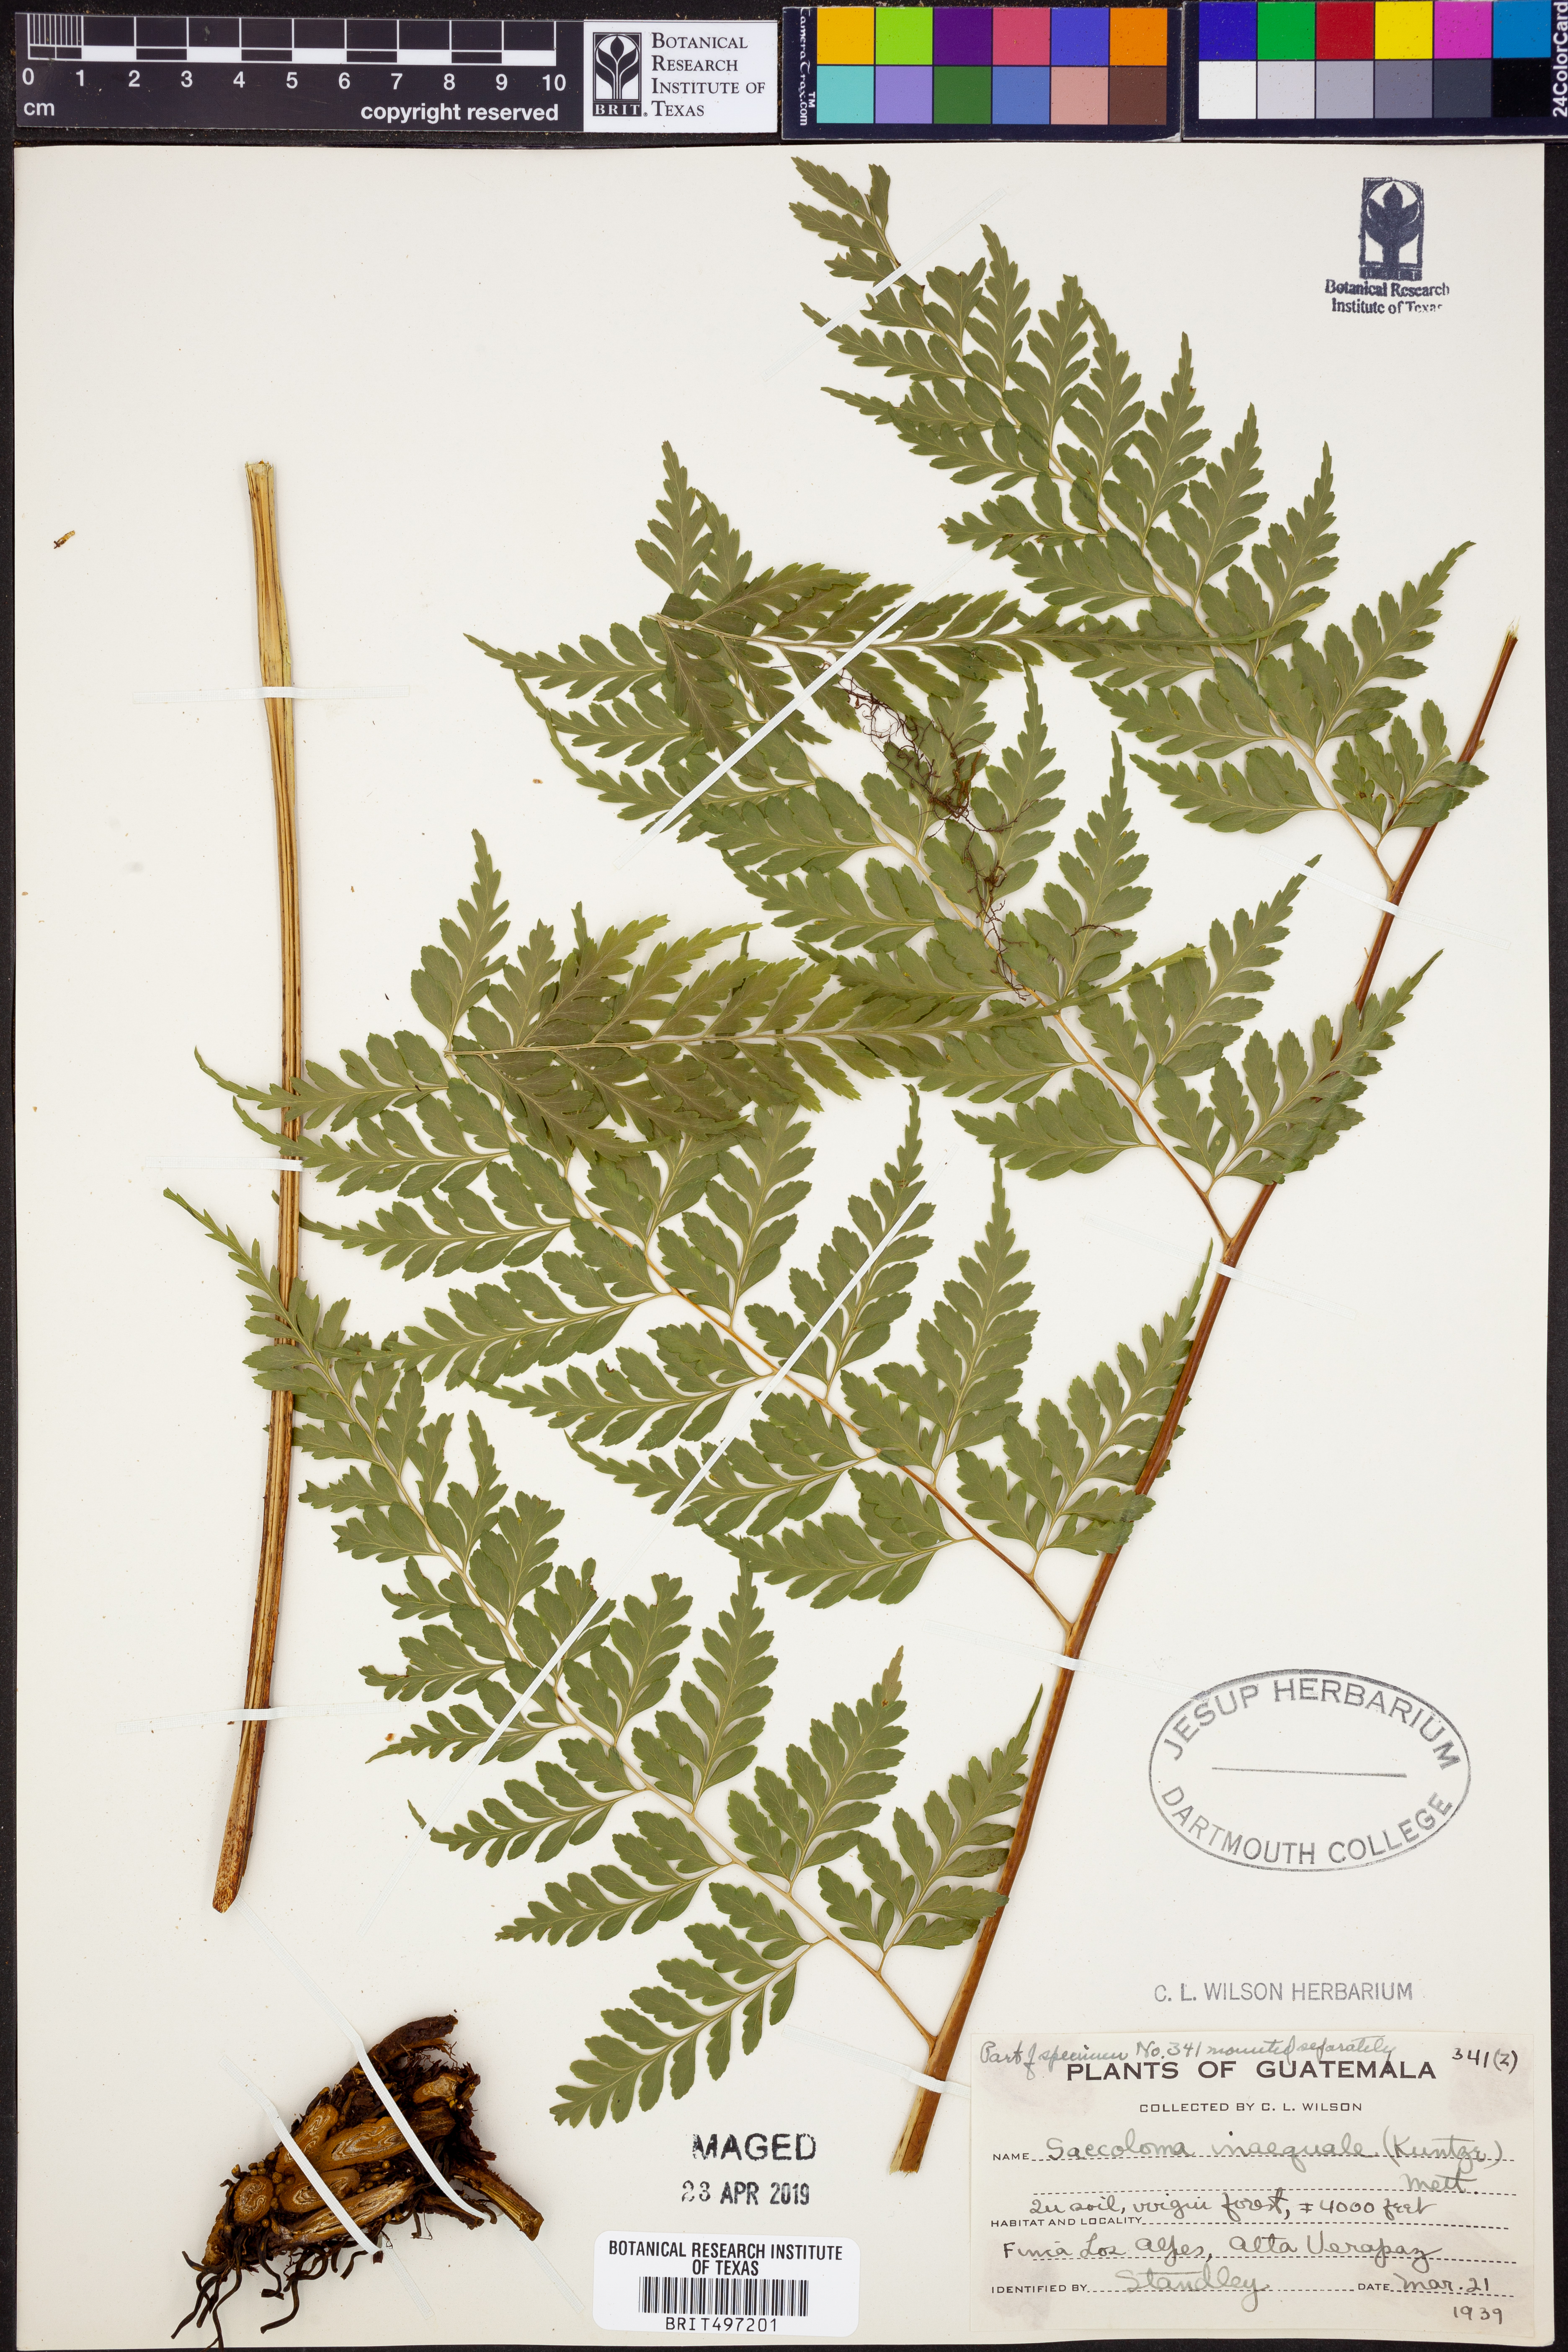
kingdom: Plantae
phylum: Tracheophyta
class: Polypodiopsida
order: Polypodiales
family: Saccolomataceae
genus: Saccoloma
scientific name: Saccoloma inaequale
